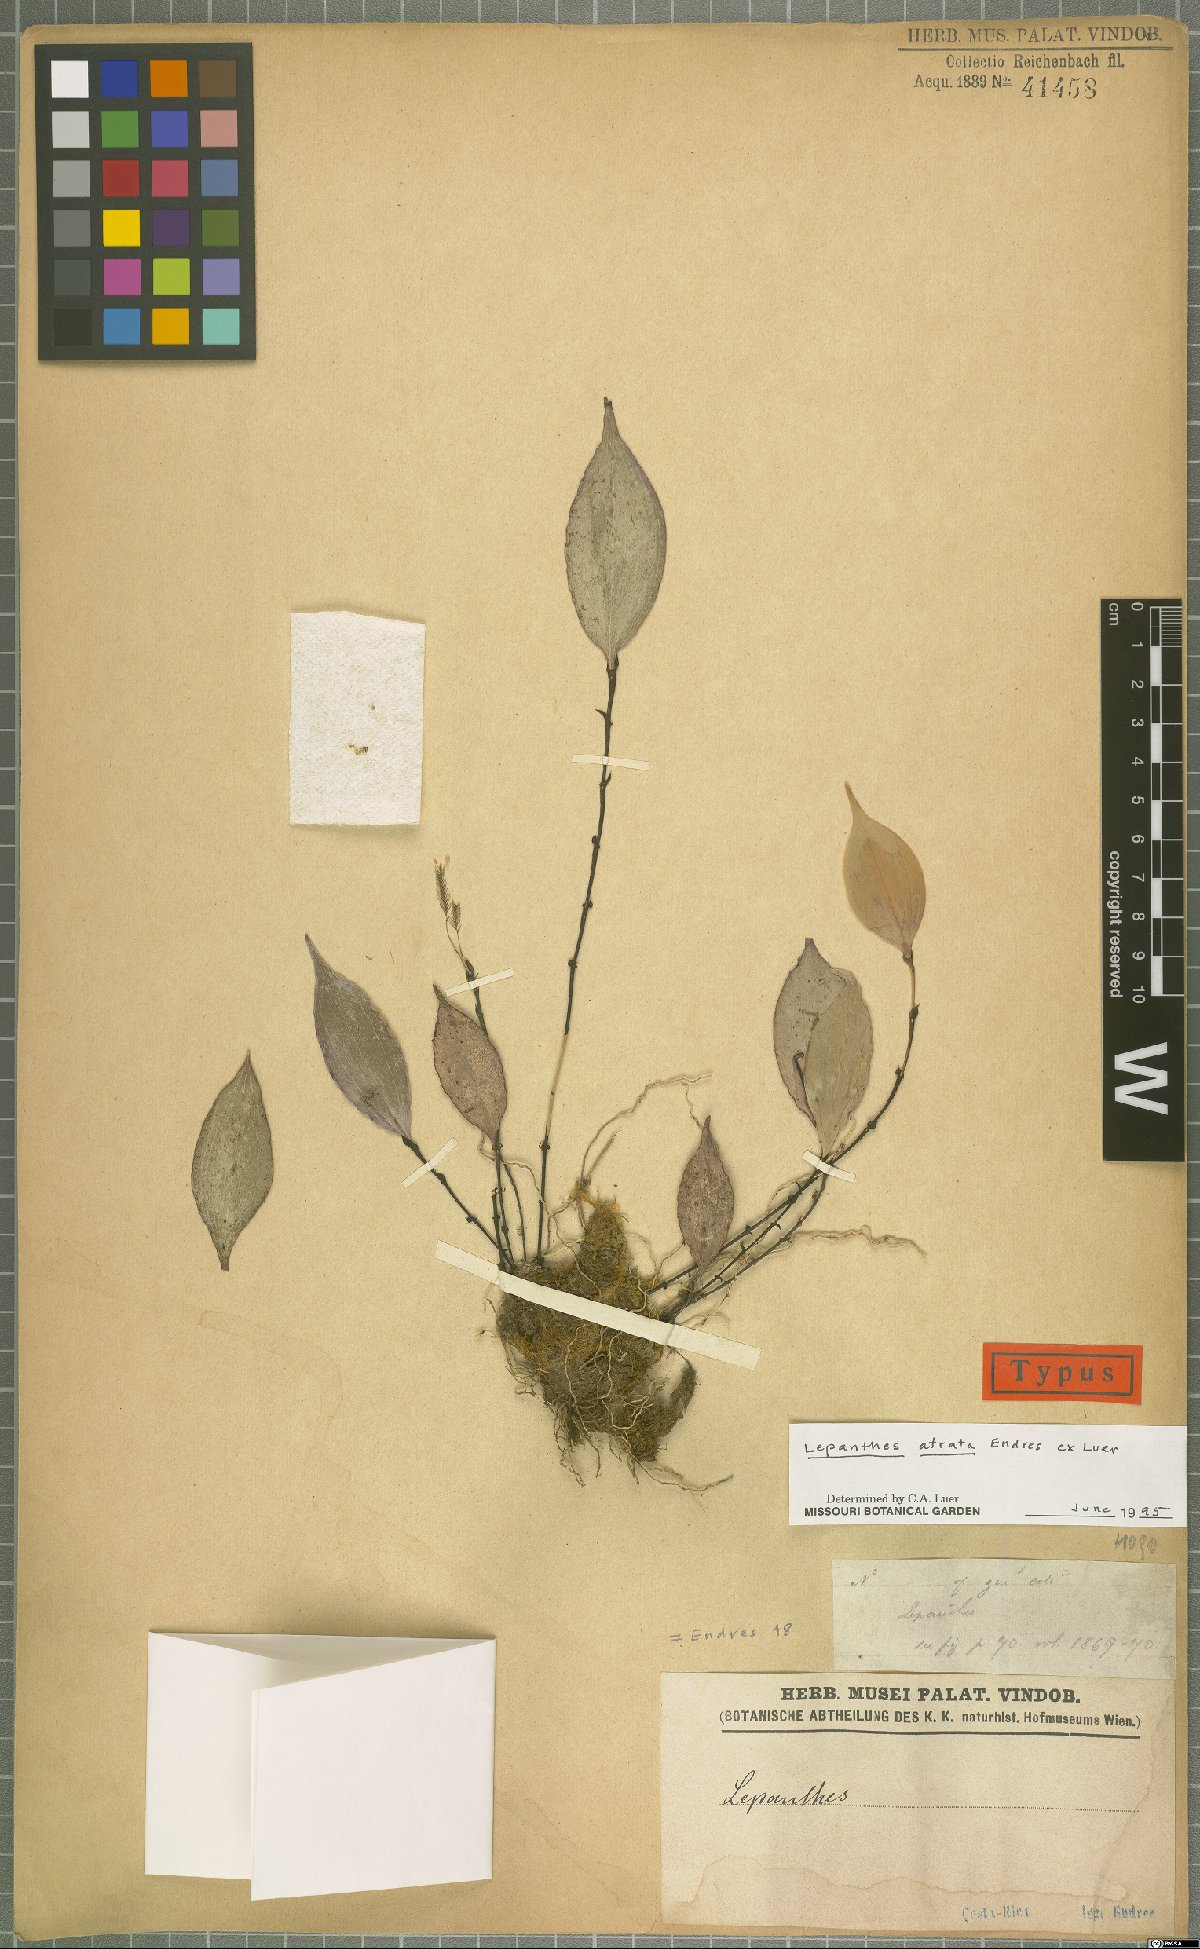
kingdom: Plantae
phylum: Tracheophyta
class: Liliopsida
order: Asparagales
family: Orchidaceae
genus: Lepanthes
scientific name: Lepanthes atrata
